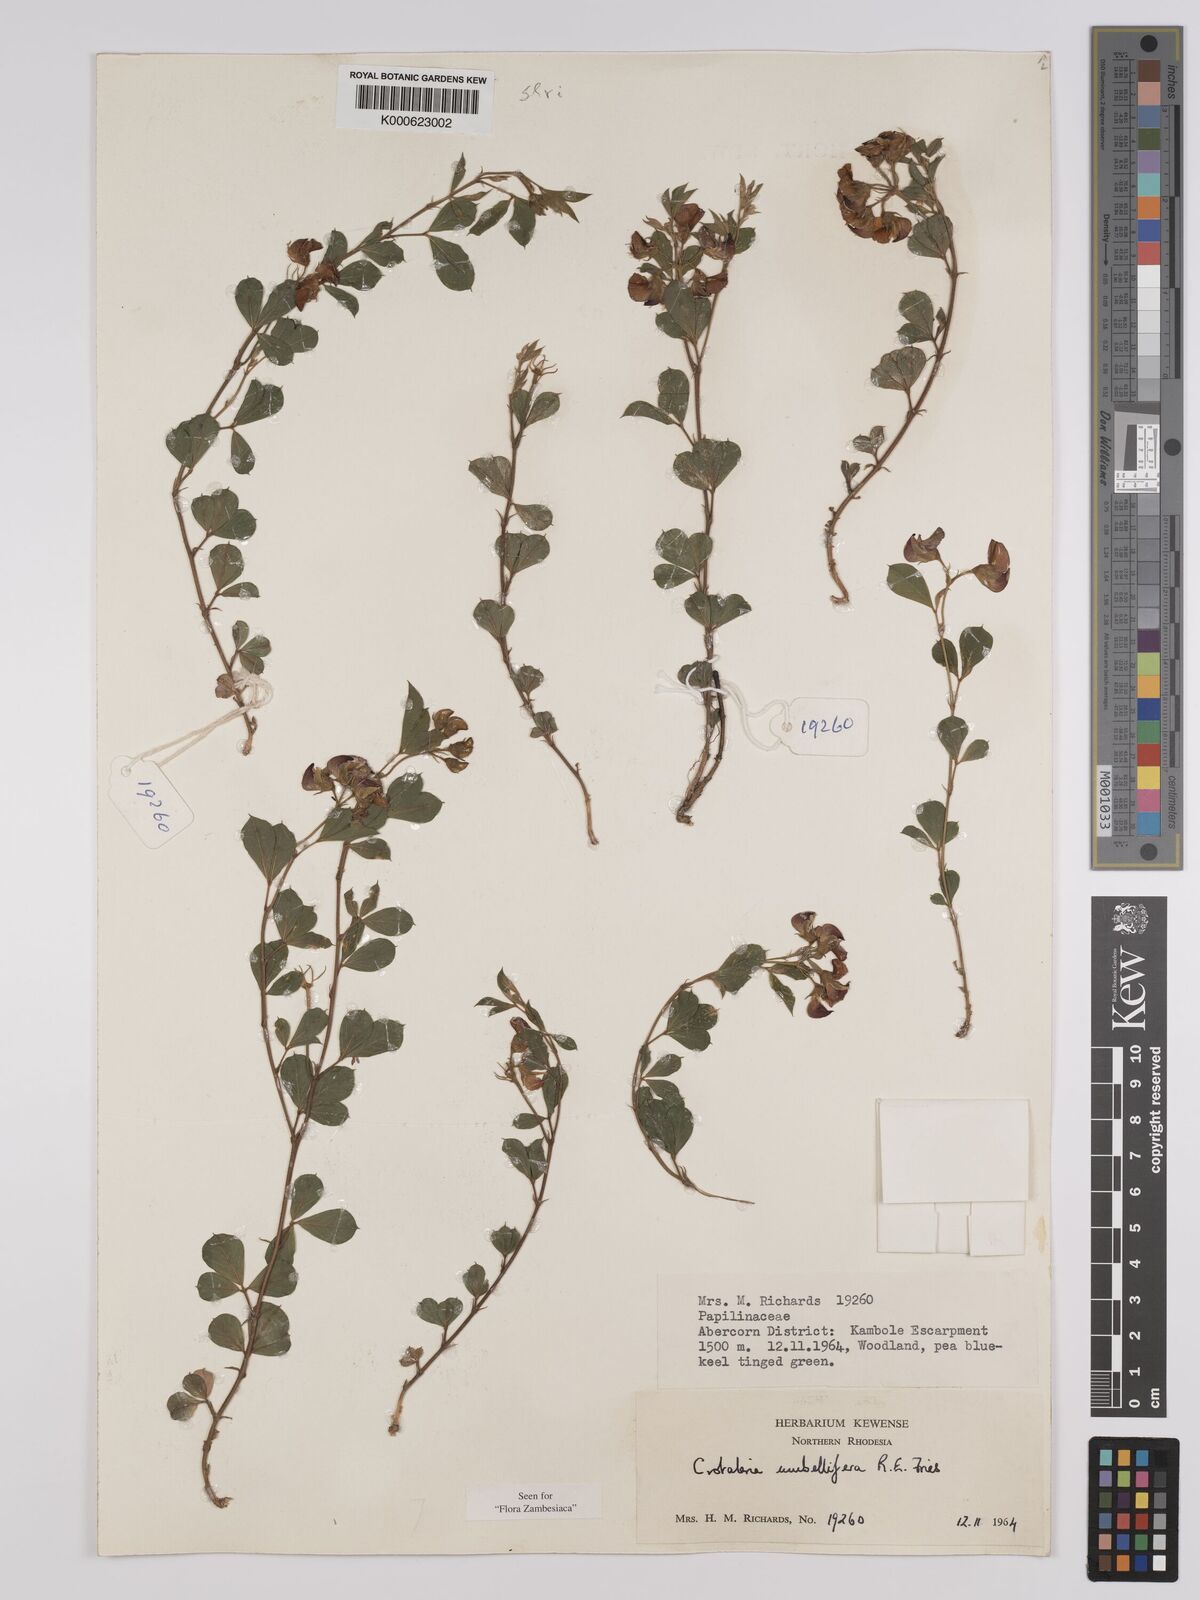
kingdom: Plantae
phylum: Tracheophyta
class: Magnoliopsida
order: Fabales
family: Fabaceae
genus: Crotalaria
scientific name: Crotalaria umbellifera
